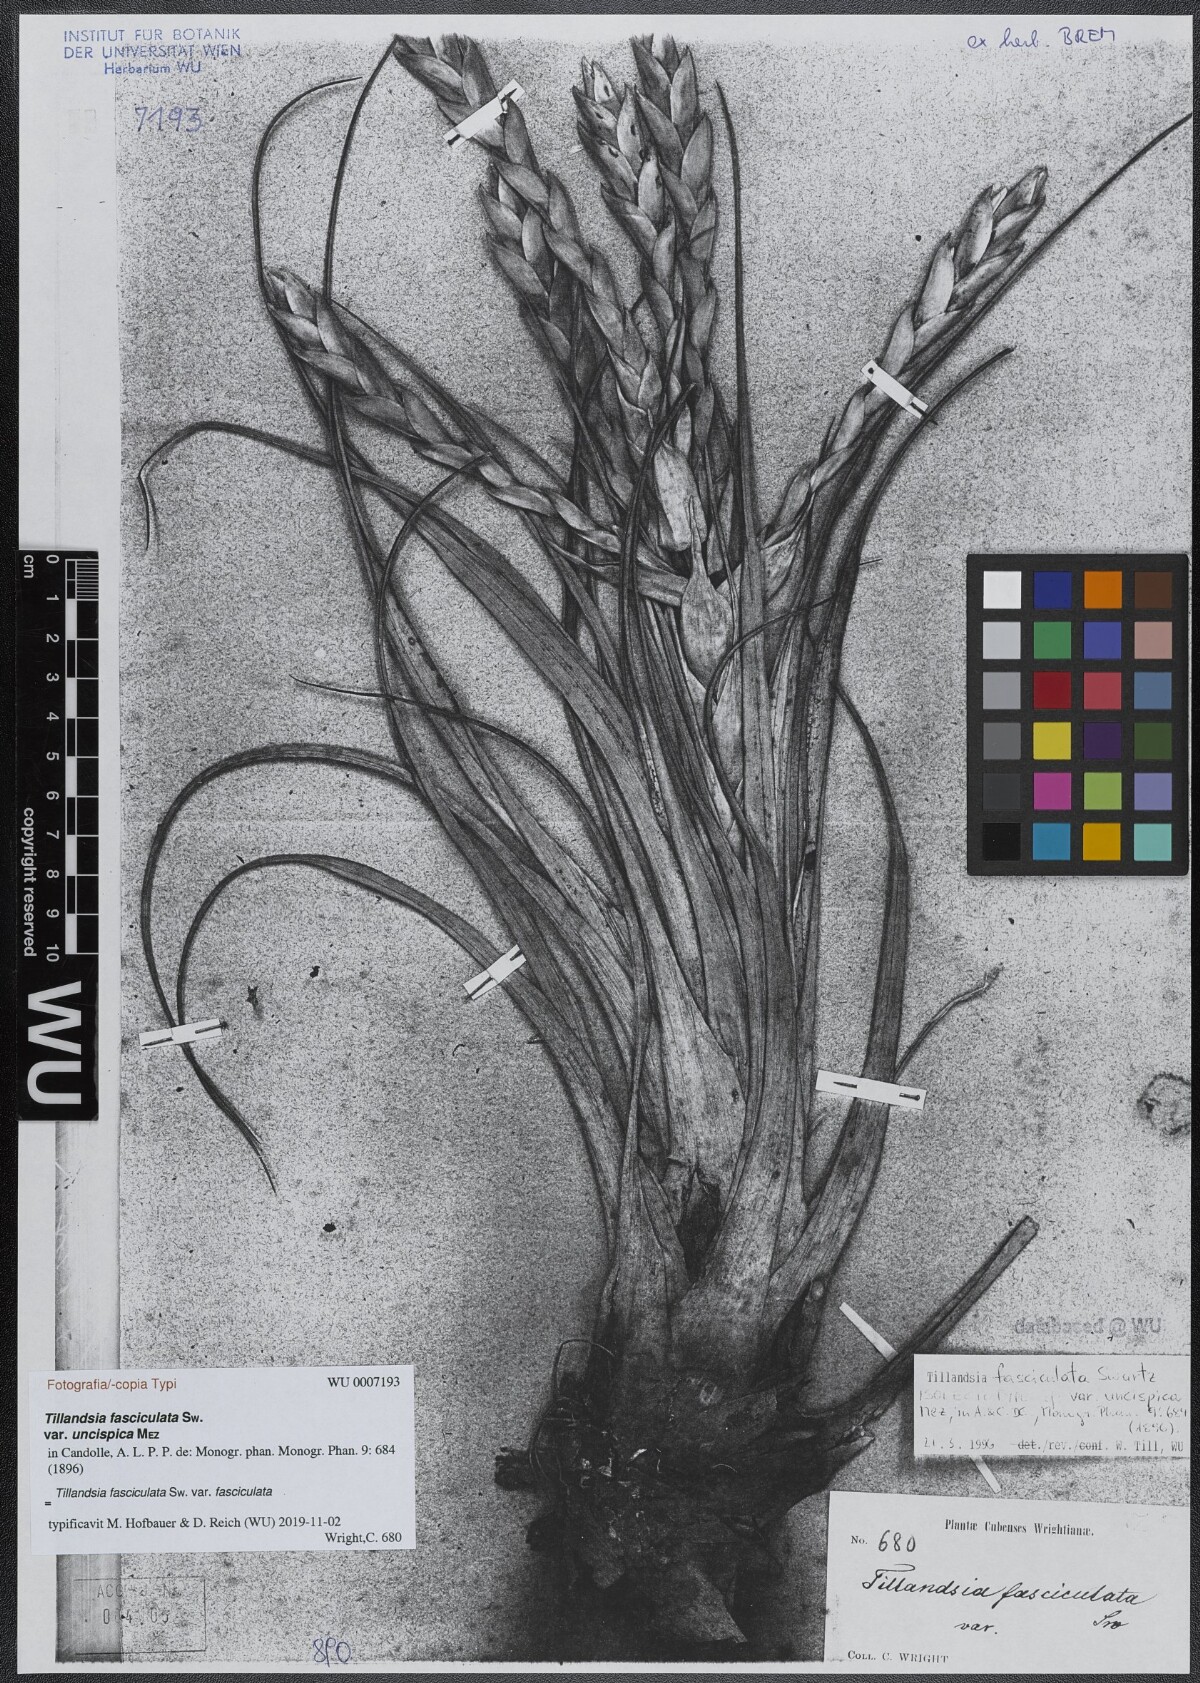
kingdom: Plantae
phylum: Tracheophyta
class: Liliopsida
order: Poales
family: Bromeliaceae
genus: Tillandsia
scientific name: Tillandsia fasciculata
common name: Giant airplant
